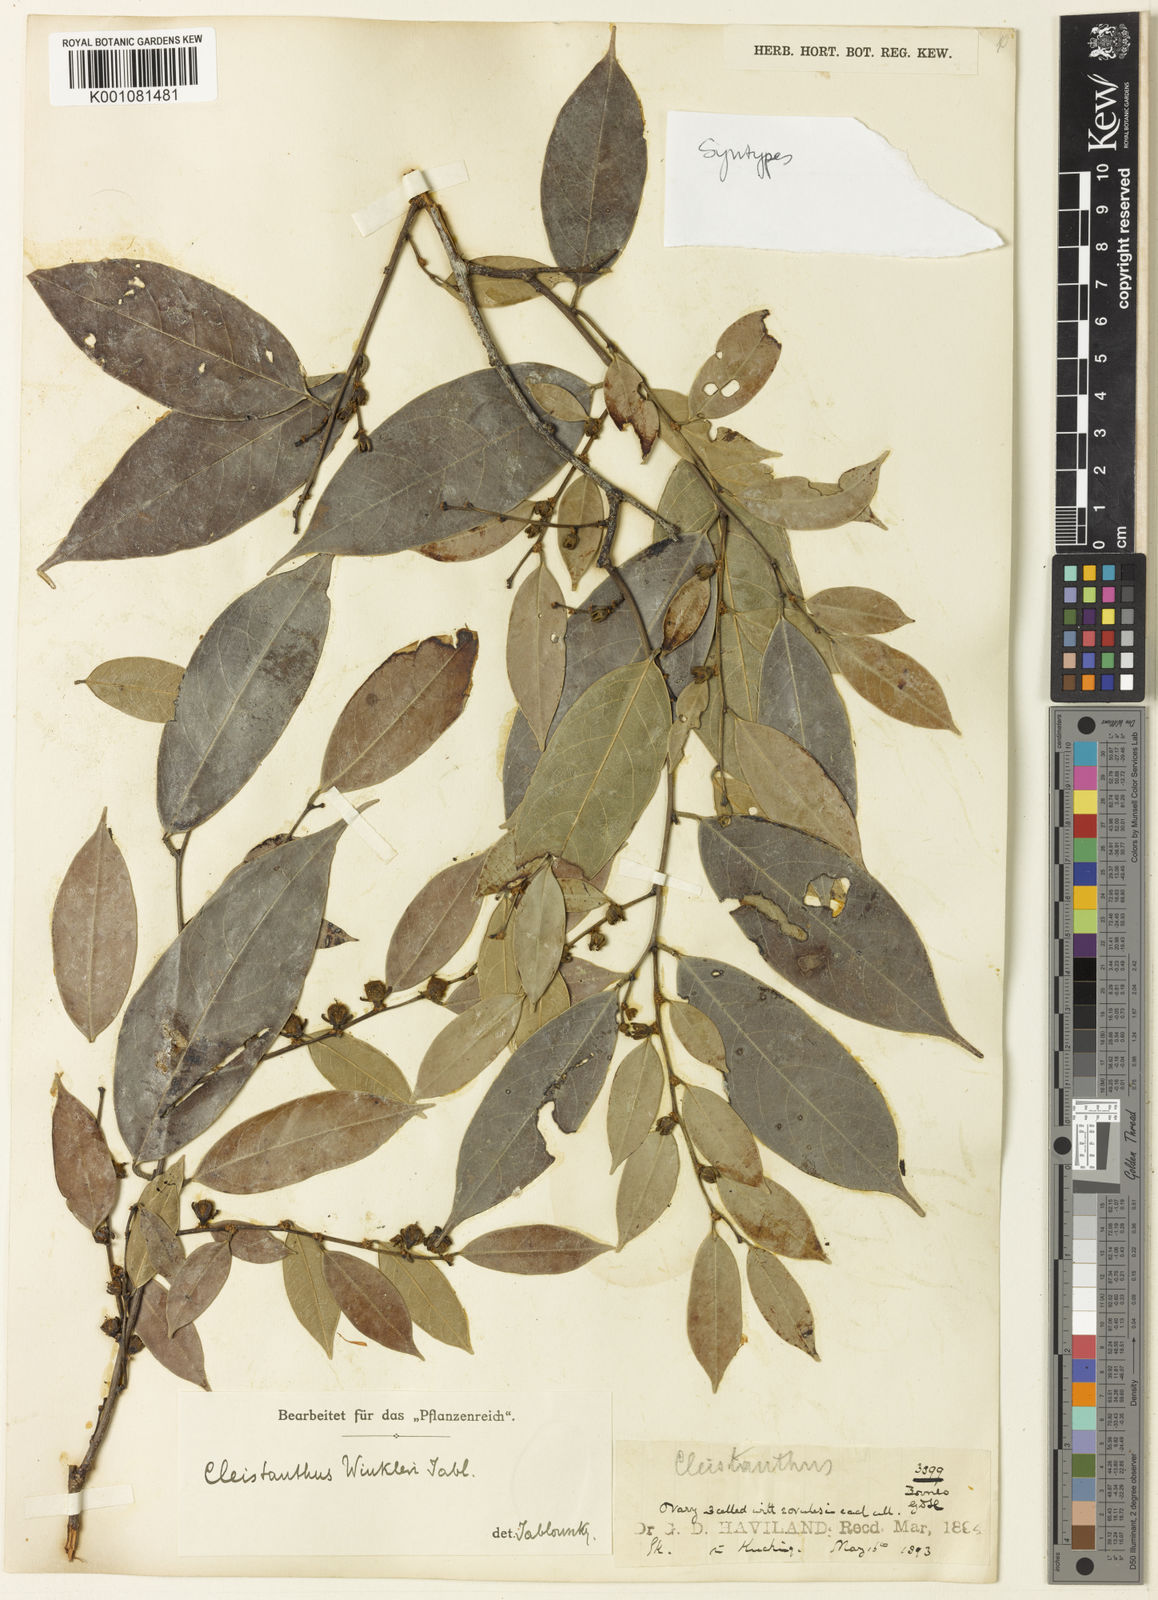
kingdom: Plantae
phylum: Tracheophyta
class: Magnoliopsida
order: Malpighiales
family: Phyllanthaceae
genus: Cleistanthus
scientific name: Cleistanthus winkleri
